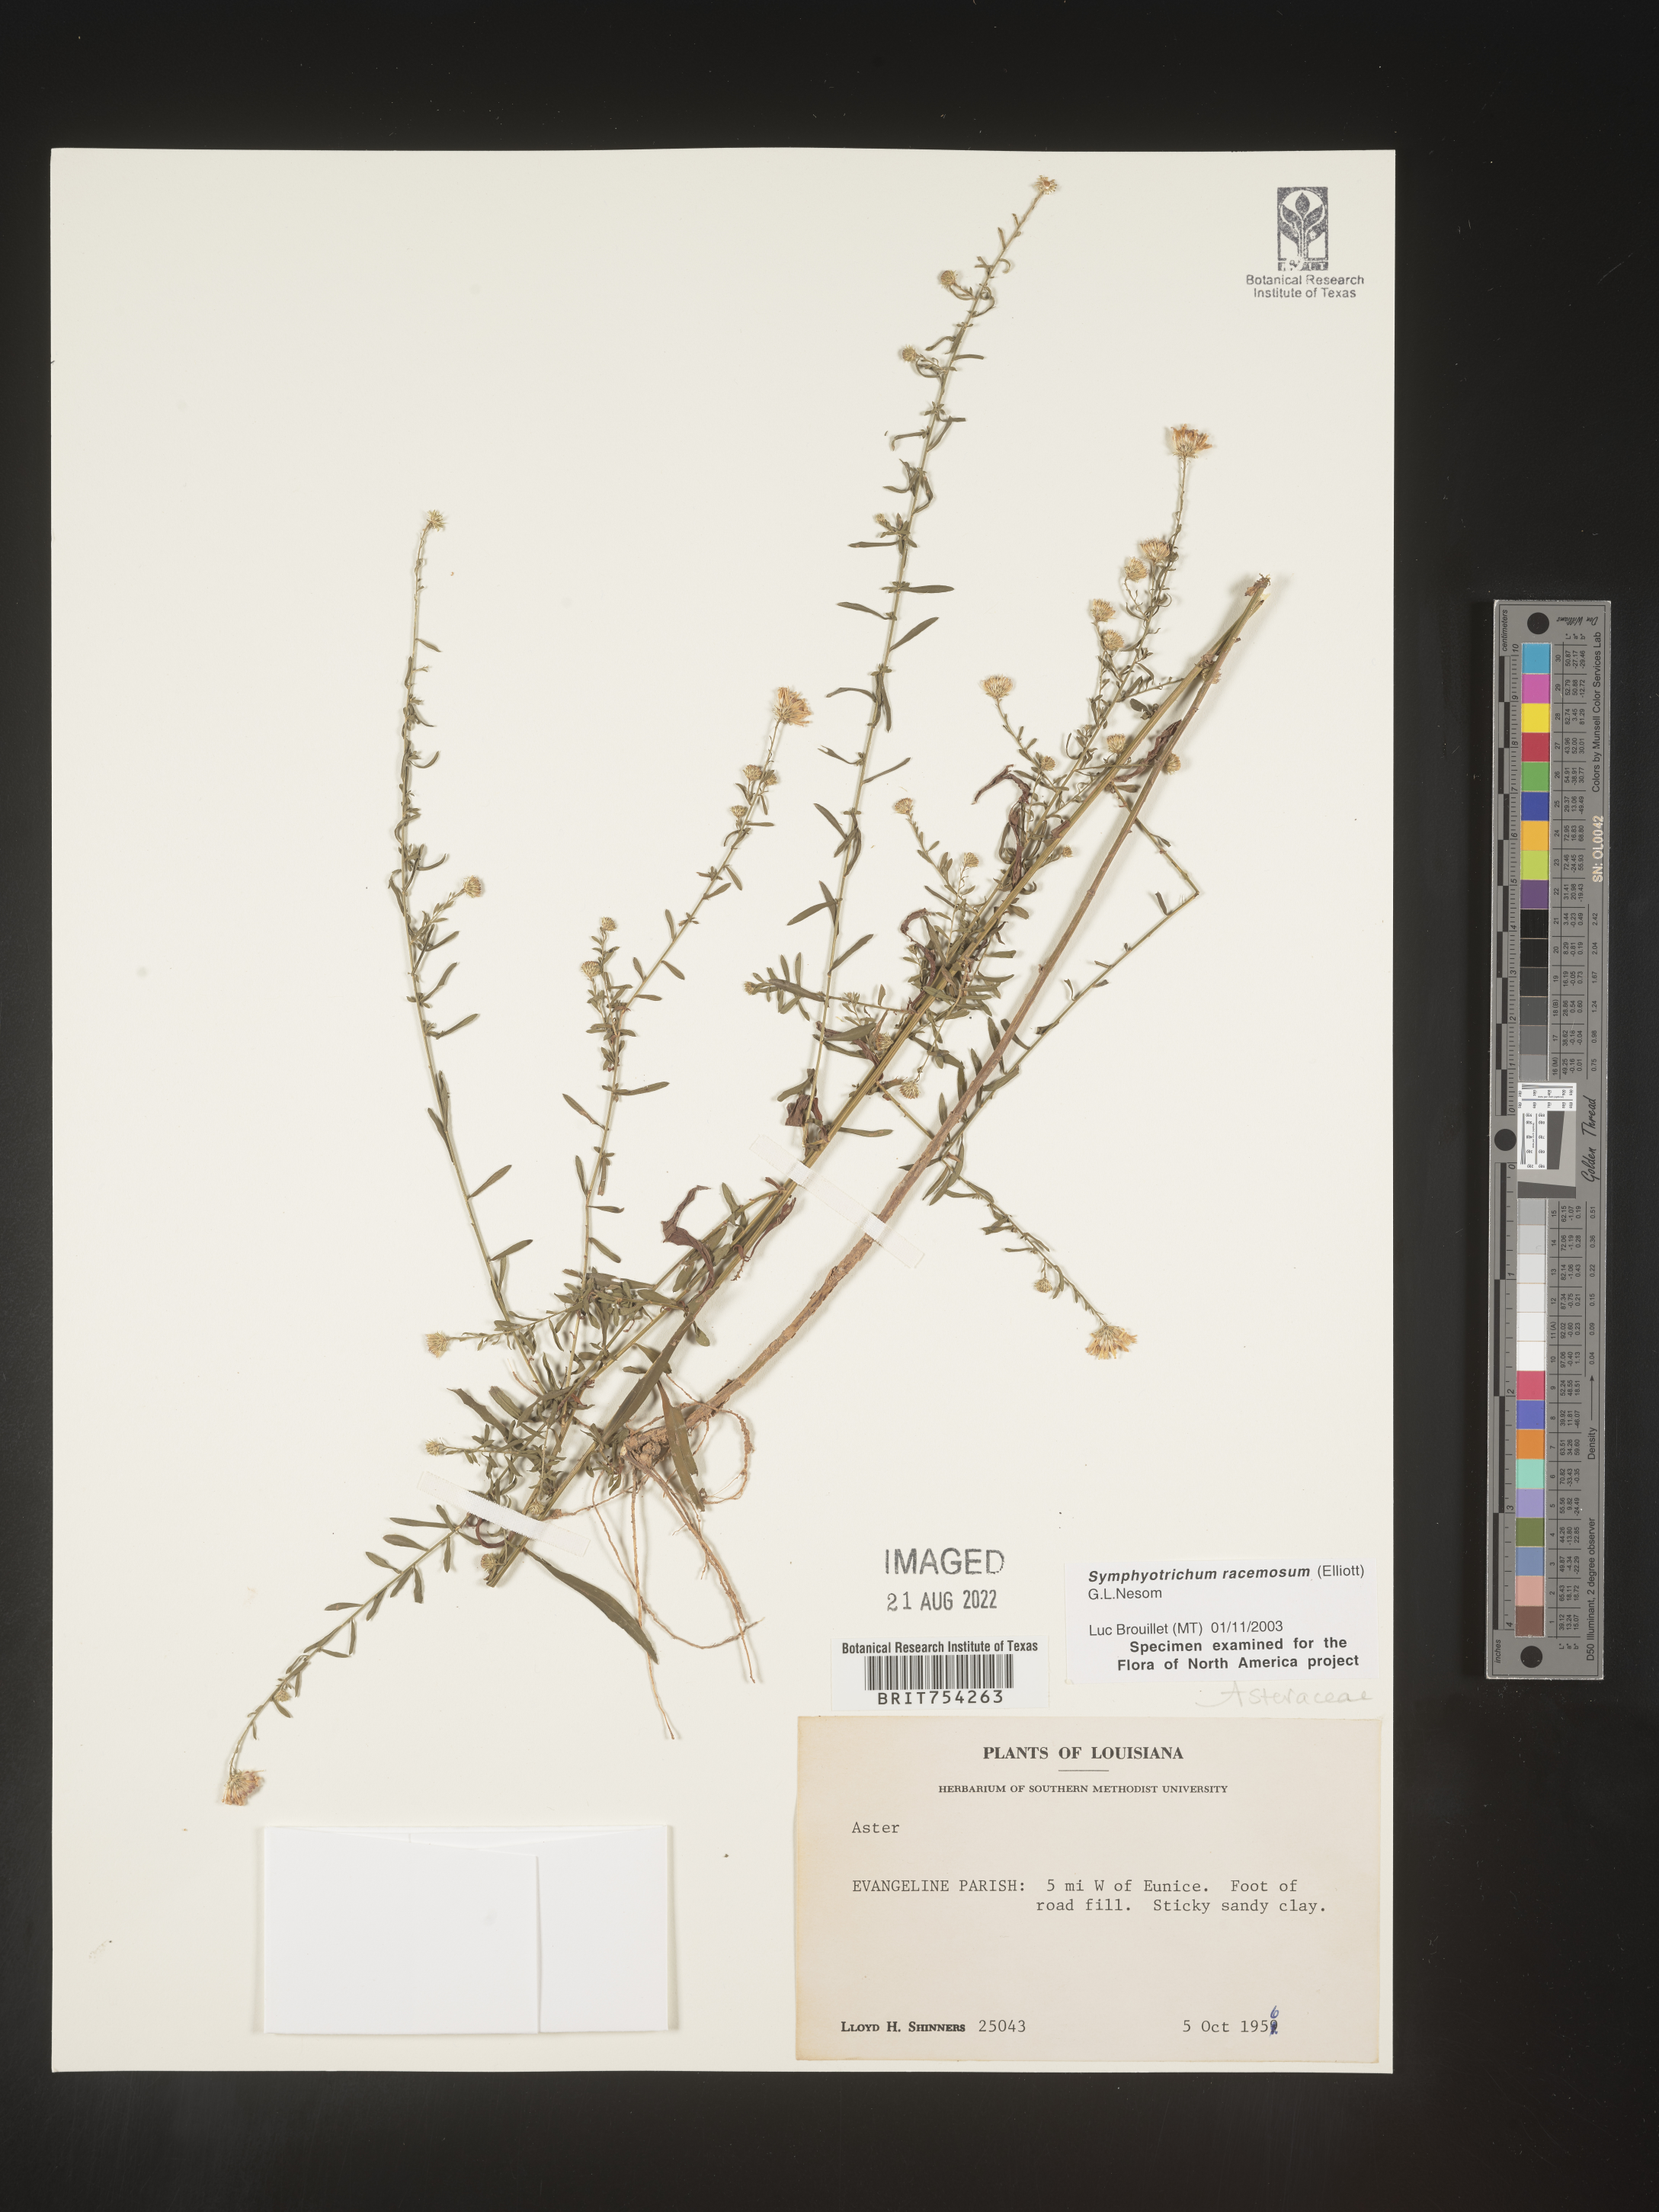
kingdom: Plantae
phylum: Tracheophyta
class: Magnoliopsida
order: Asterales
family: Asteraceae
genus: Symphyotrichum
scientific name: Symphyotrichum racemosum
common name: Small white aster
